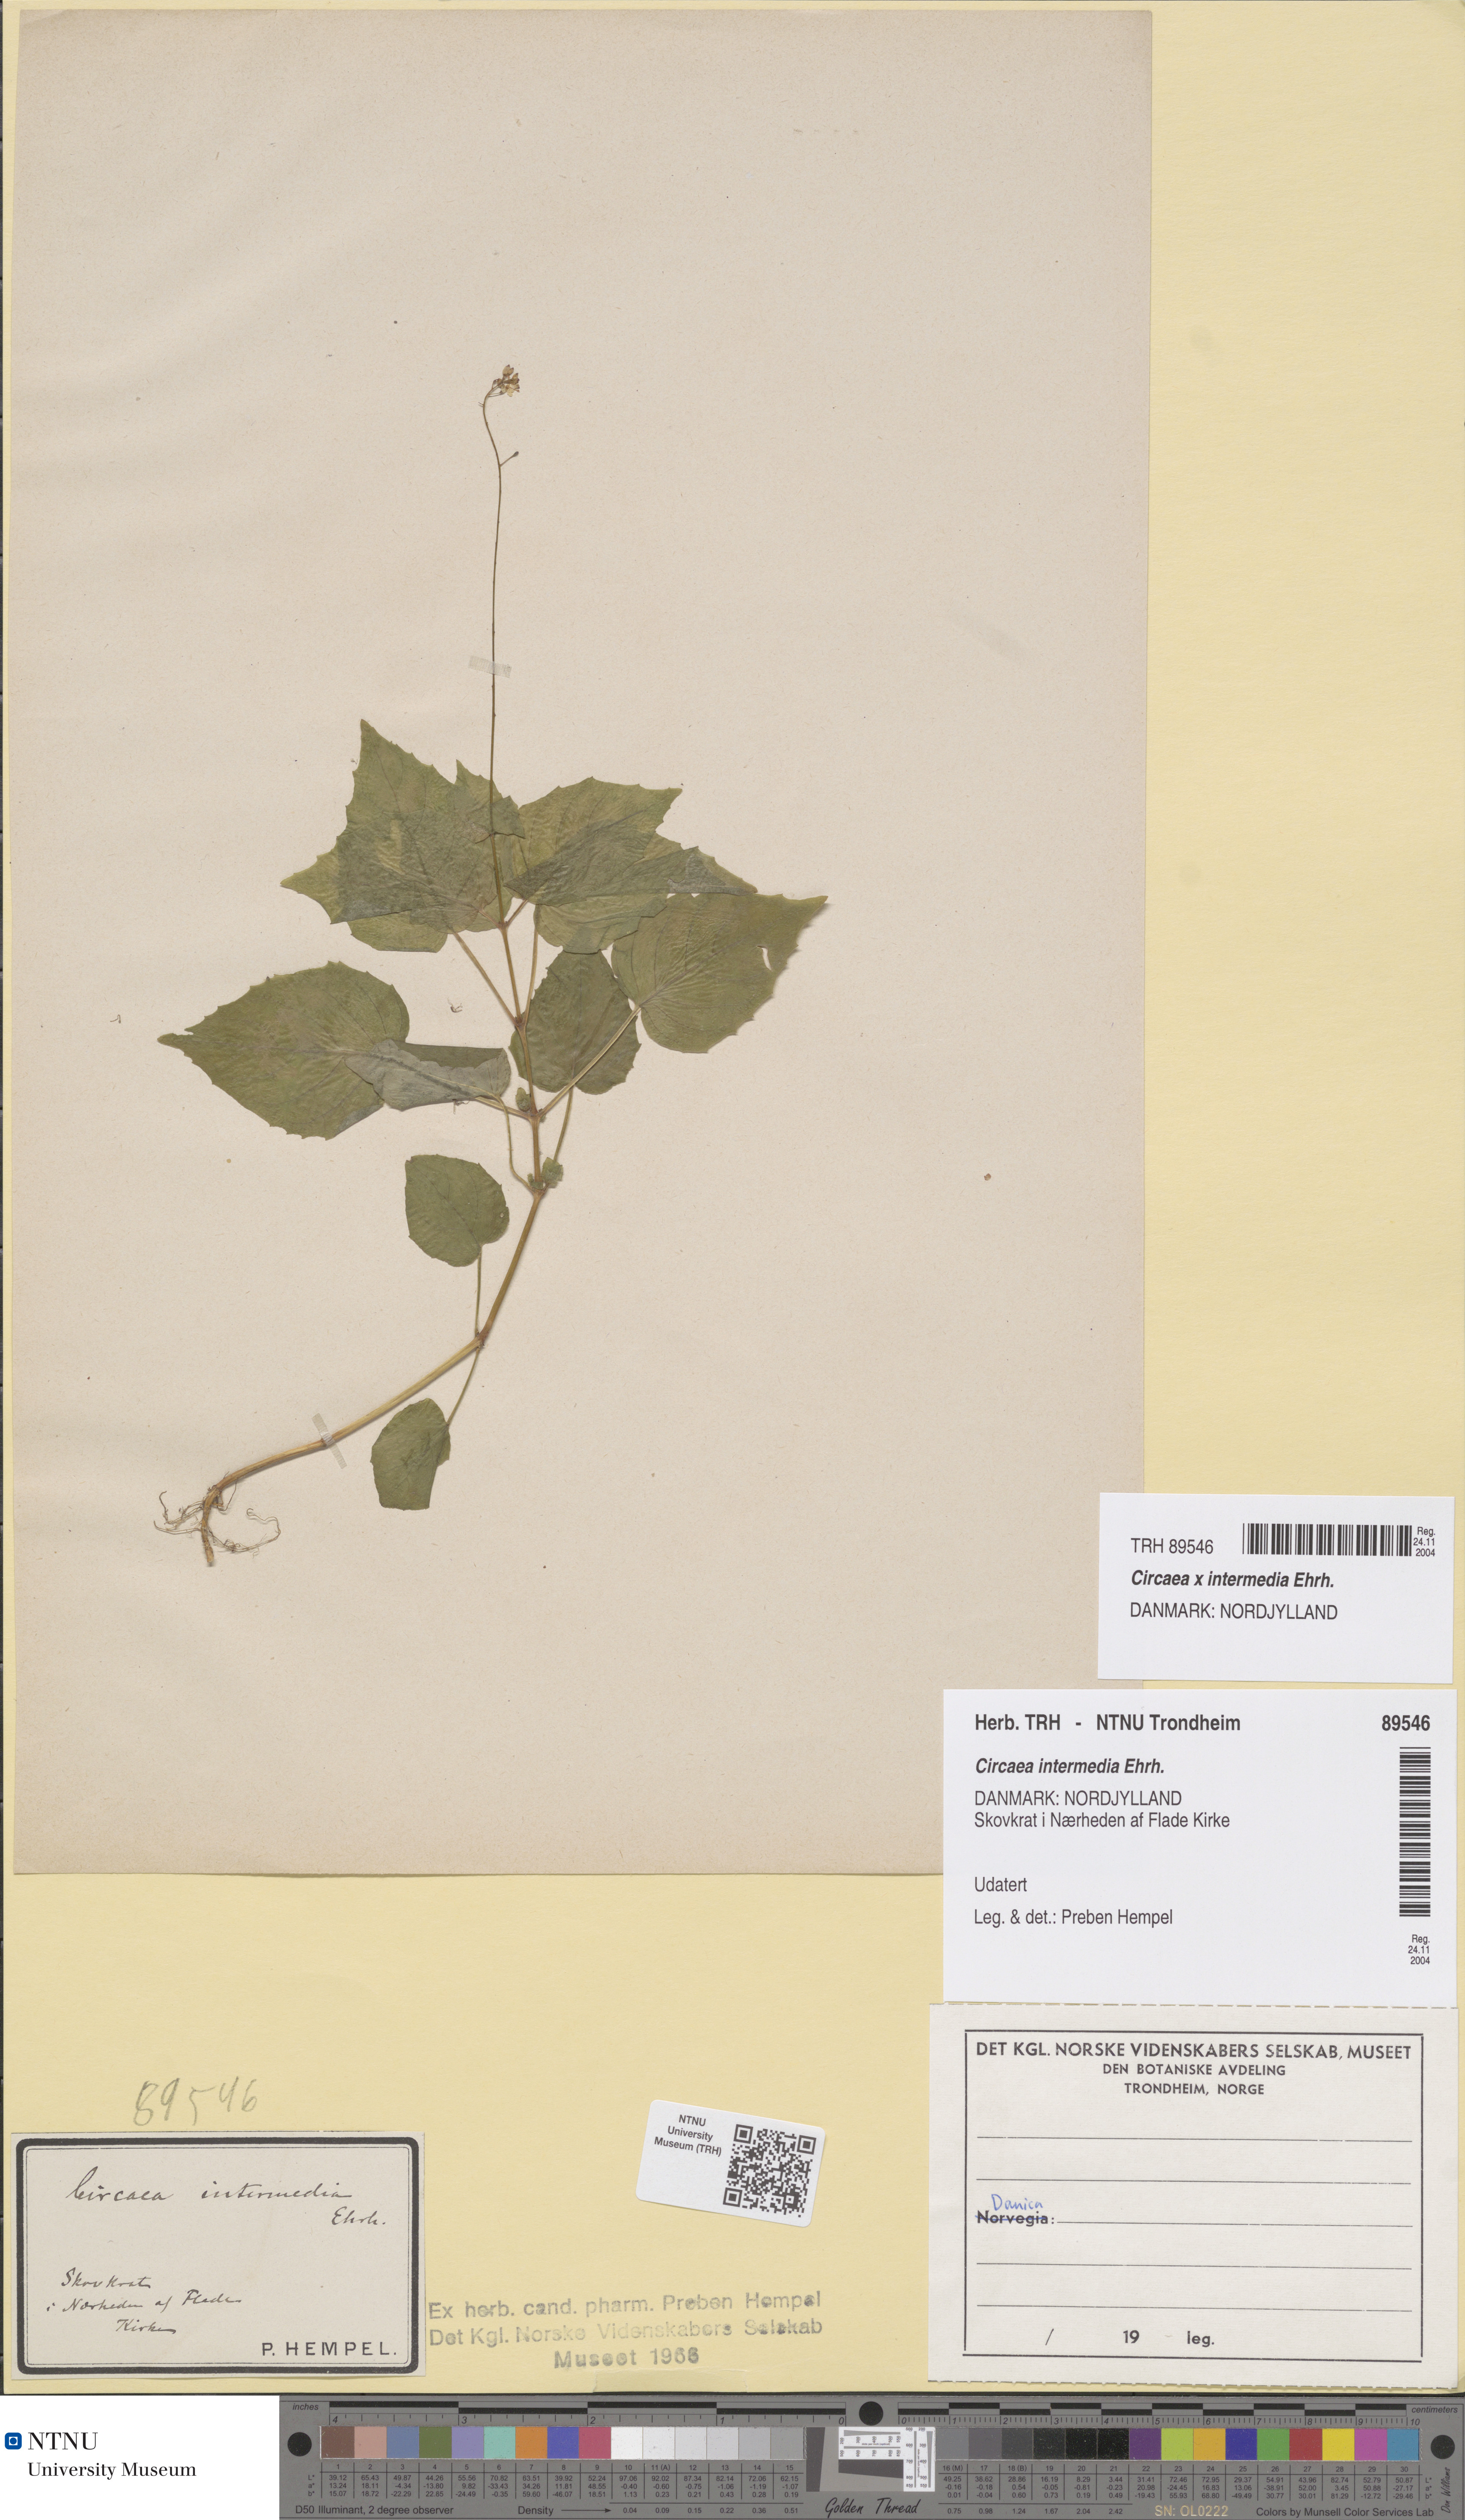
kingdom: Plantae
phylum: Tracheophyta
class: Magnoliopsida
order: Myrtales
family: Onagraceae
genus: Circaea
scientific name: Circaea intermedia
